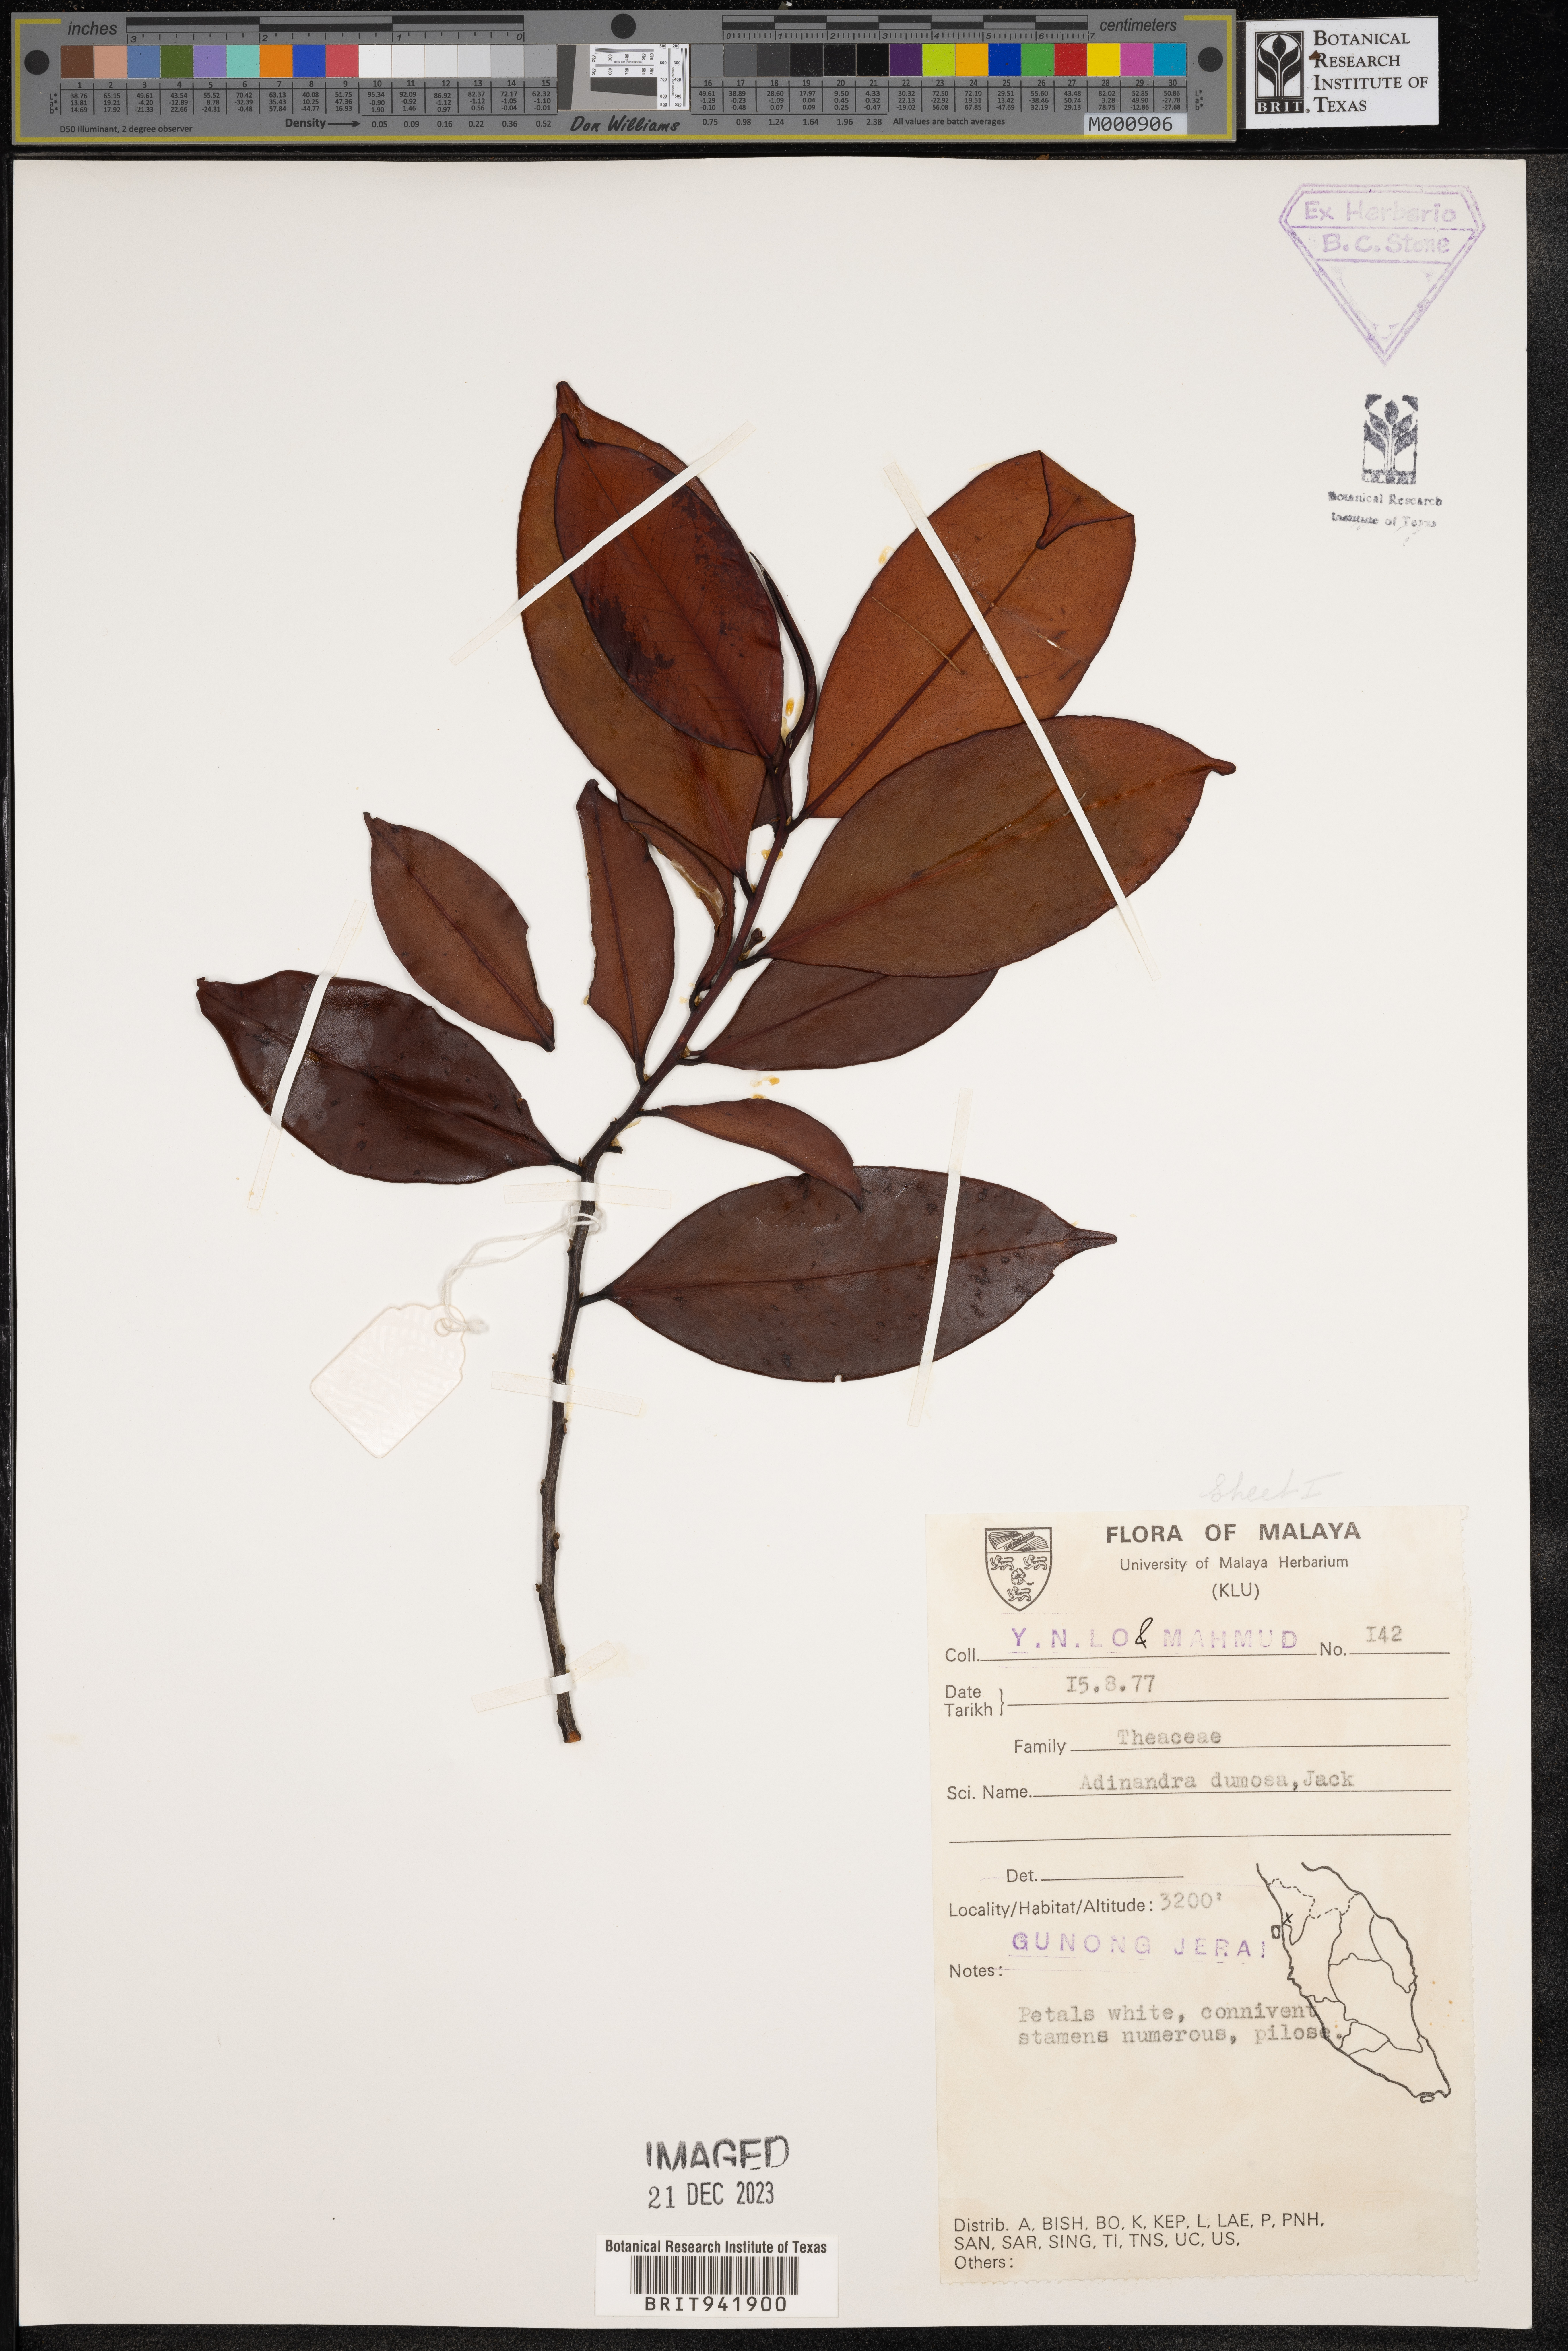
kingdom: Plantae
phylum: Tracheophyta
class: Magnoliopsida
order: Ericales
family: Pentaphylacaceae
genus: Adinandra
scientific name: Adinandra
